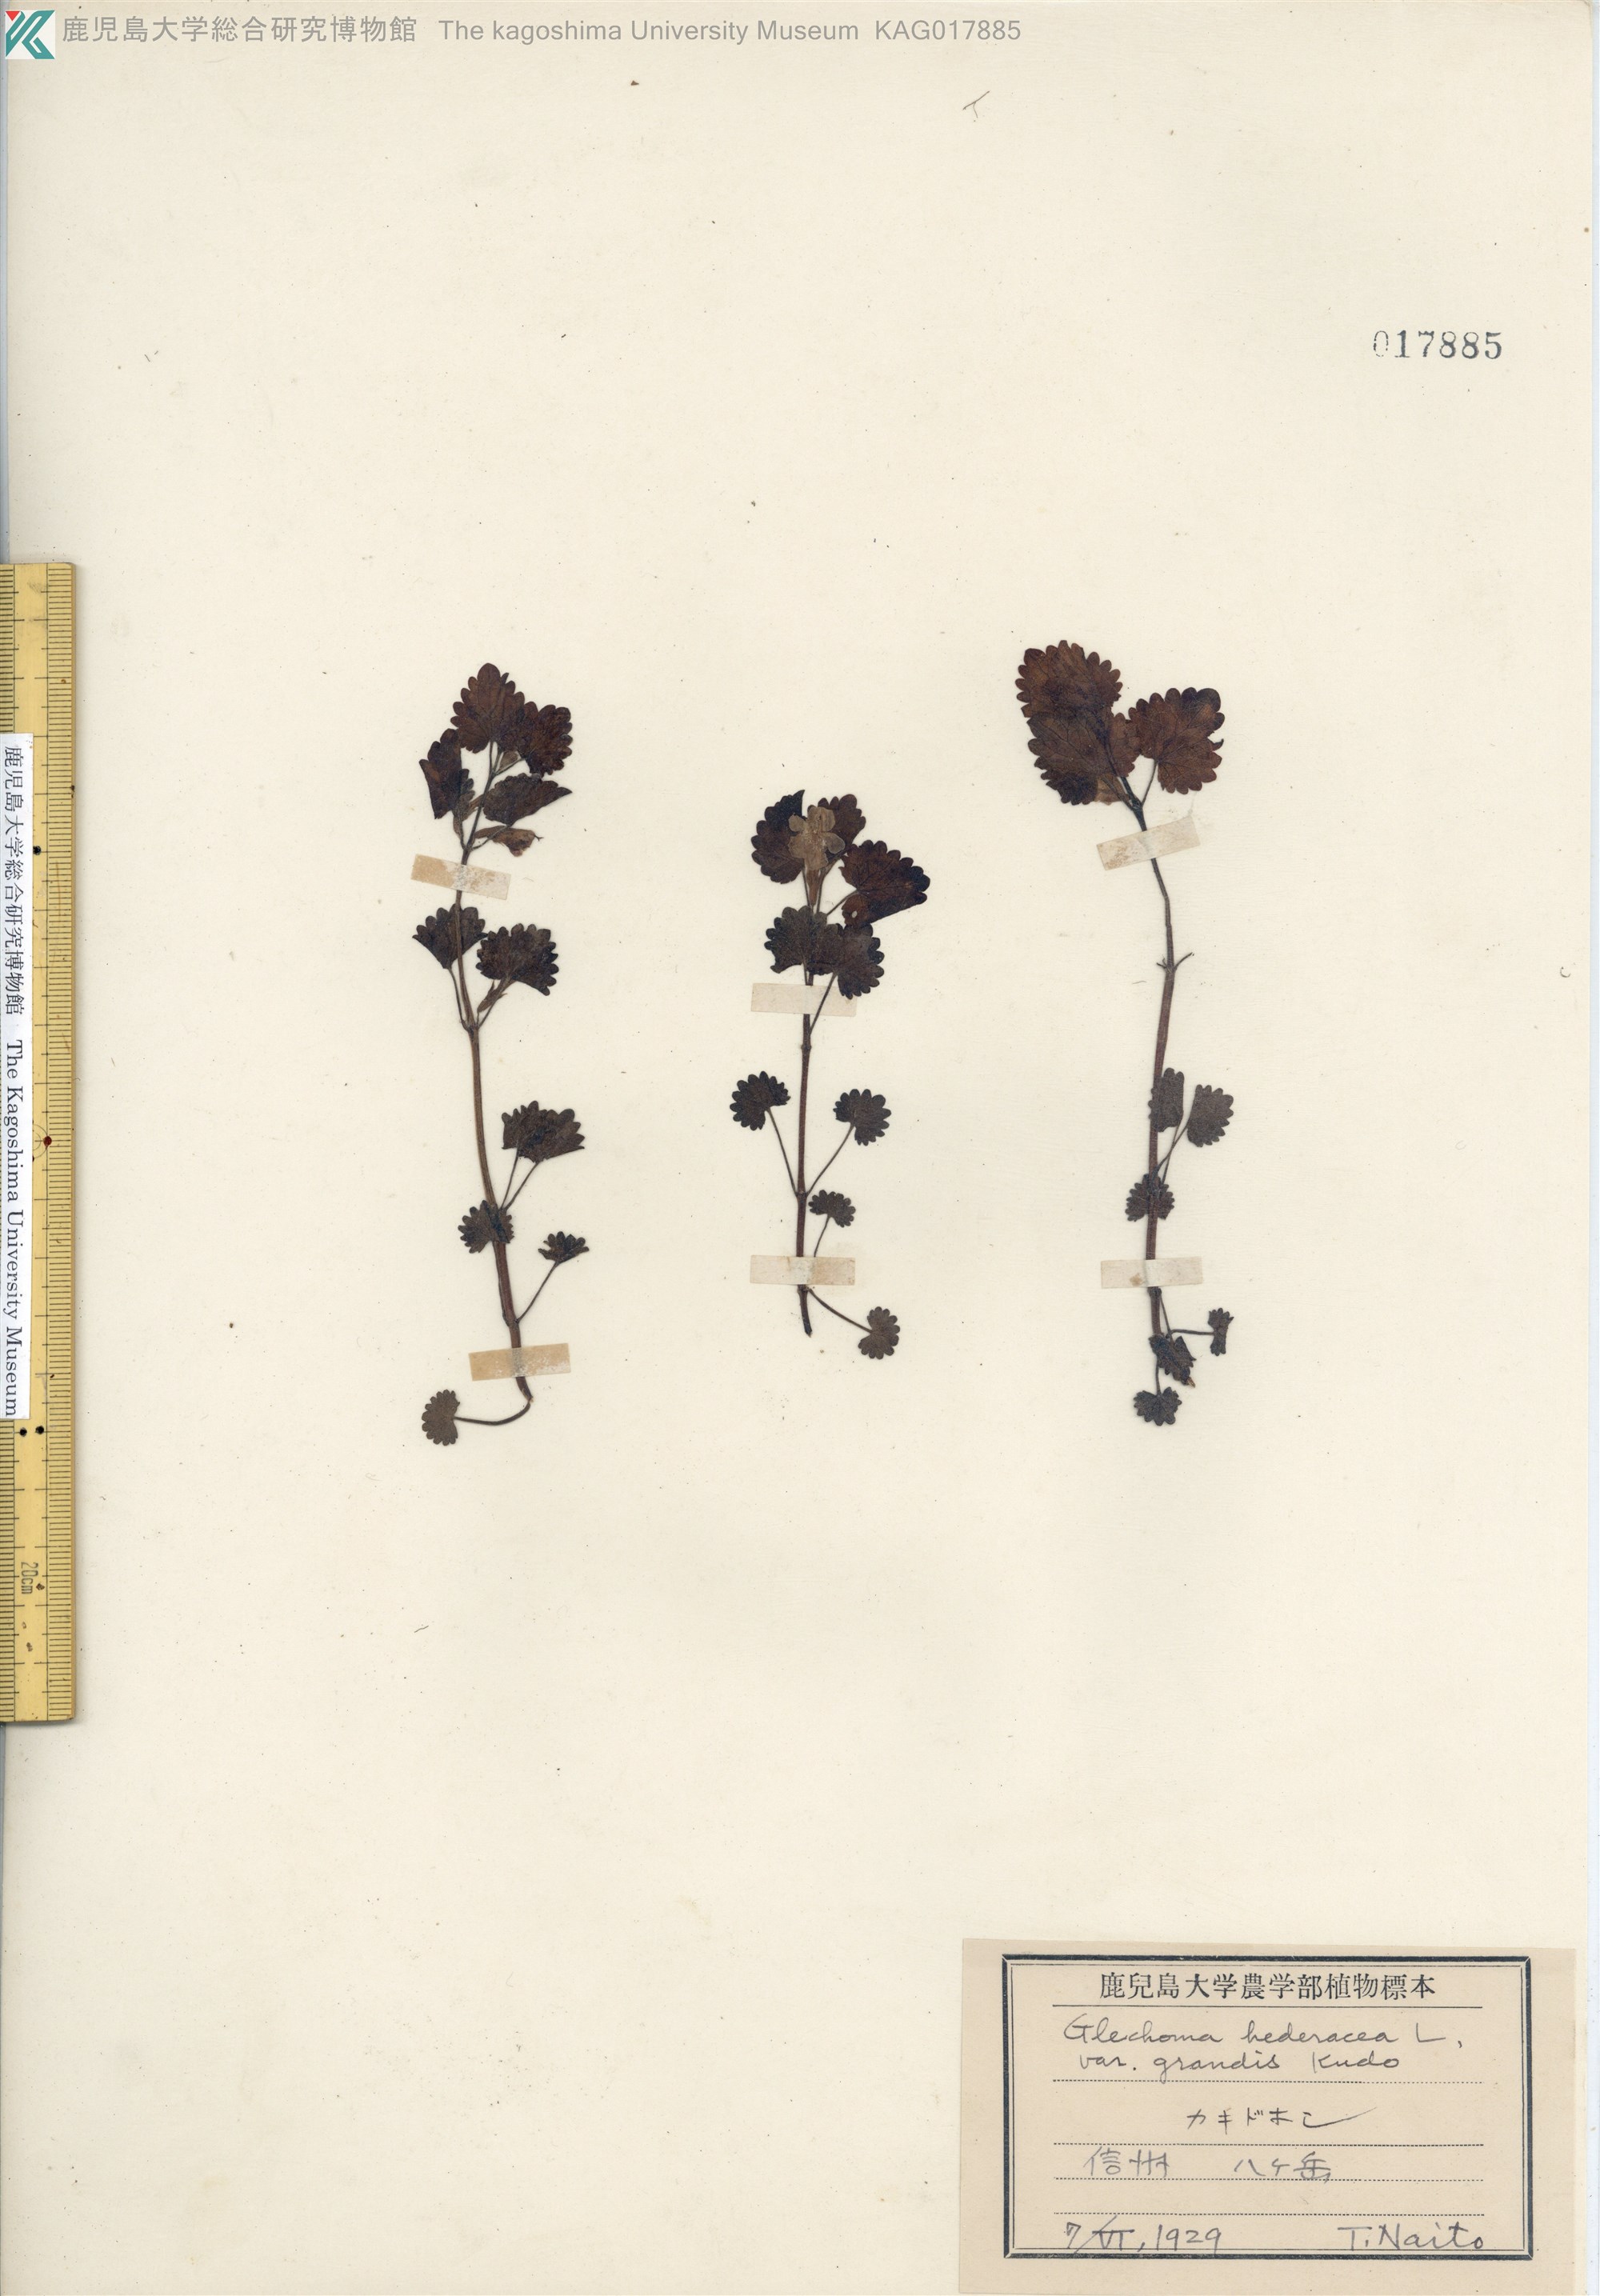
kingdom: Plantae
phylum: Tracheophyta
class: Magnoliopsida
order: Lamiales
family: Lamiaceae
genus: Glechoma
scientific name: Glechoma grandis
